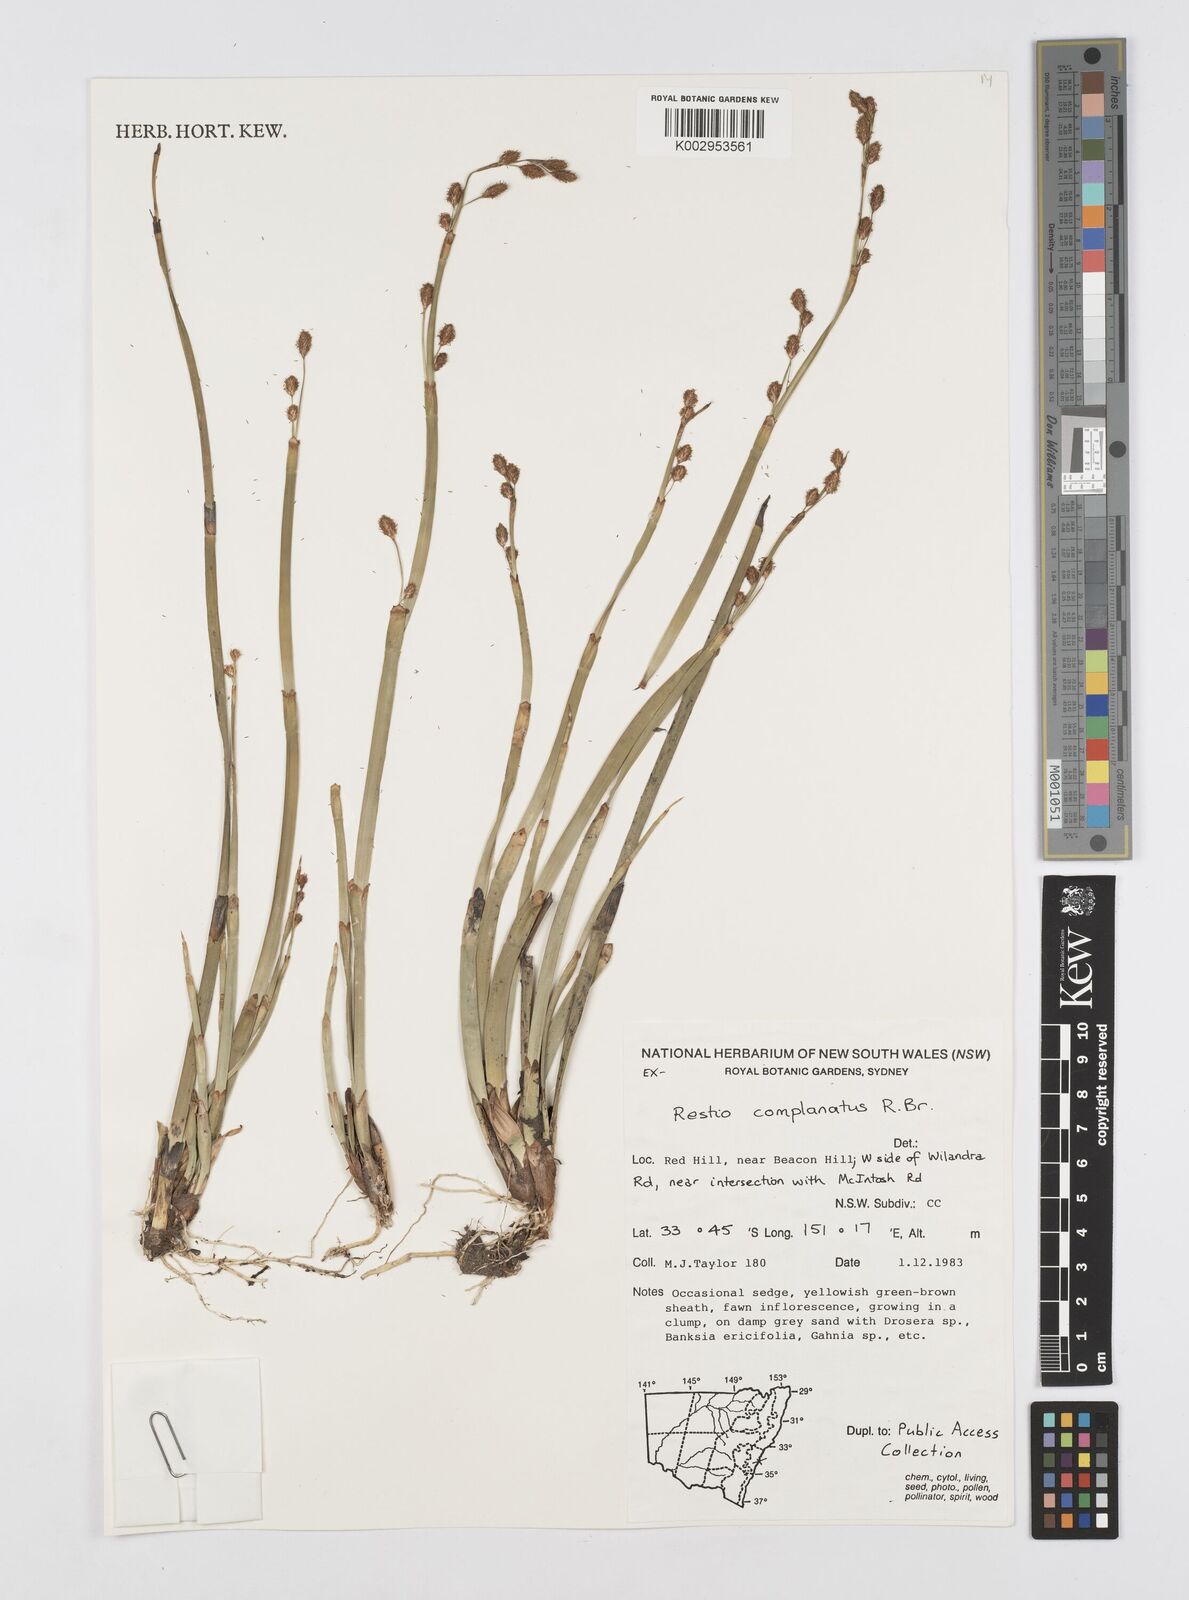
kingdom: Plantae
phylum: Tracheophyta
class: Liliopsida
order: Poales
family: Restionaceae
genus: Eurychorda
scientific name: Eurychorda complanata
